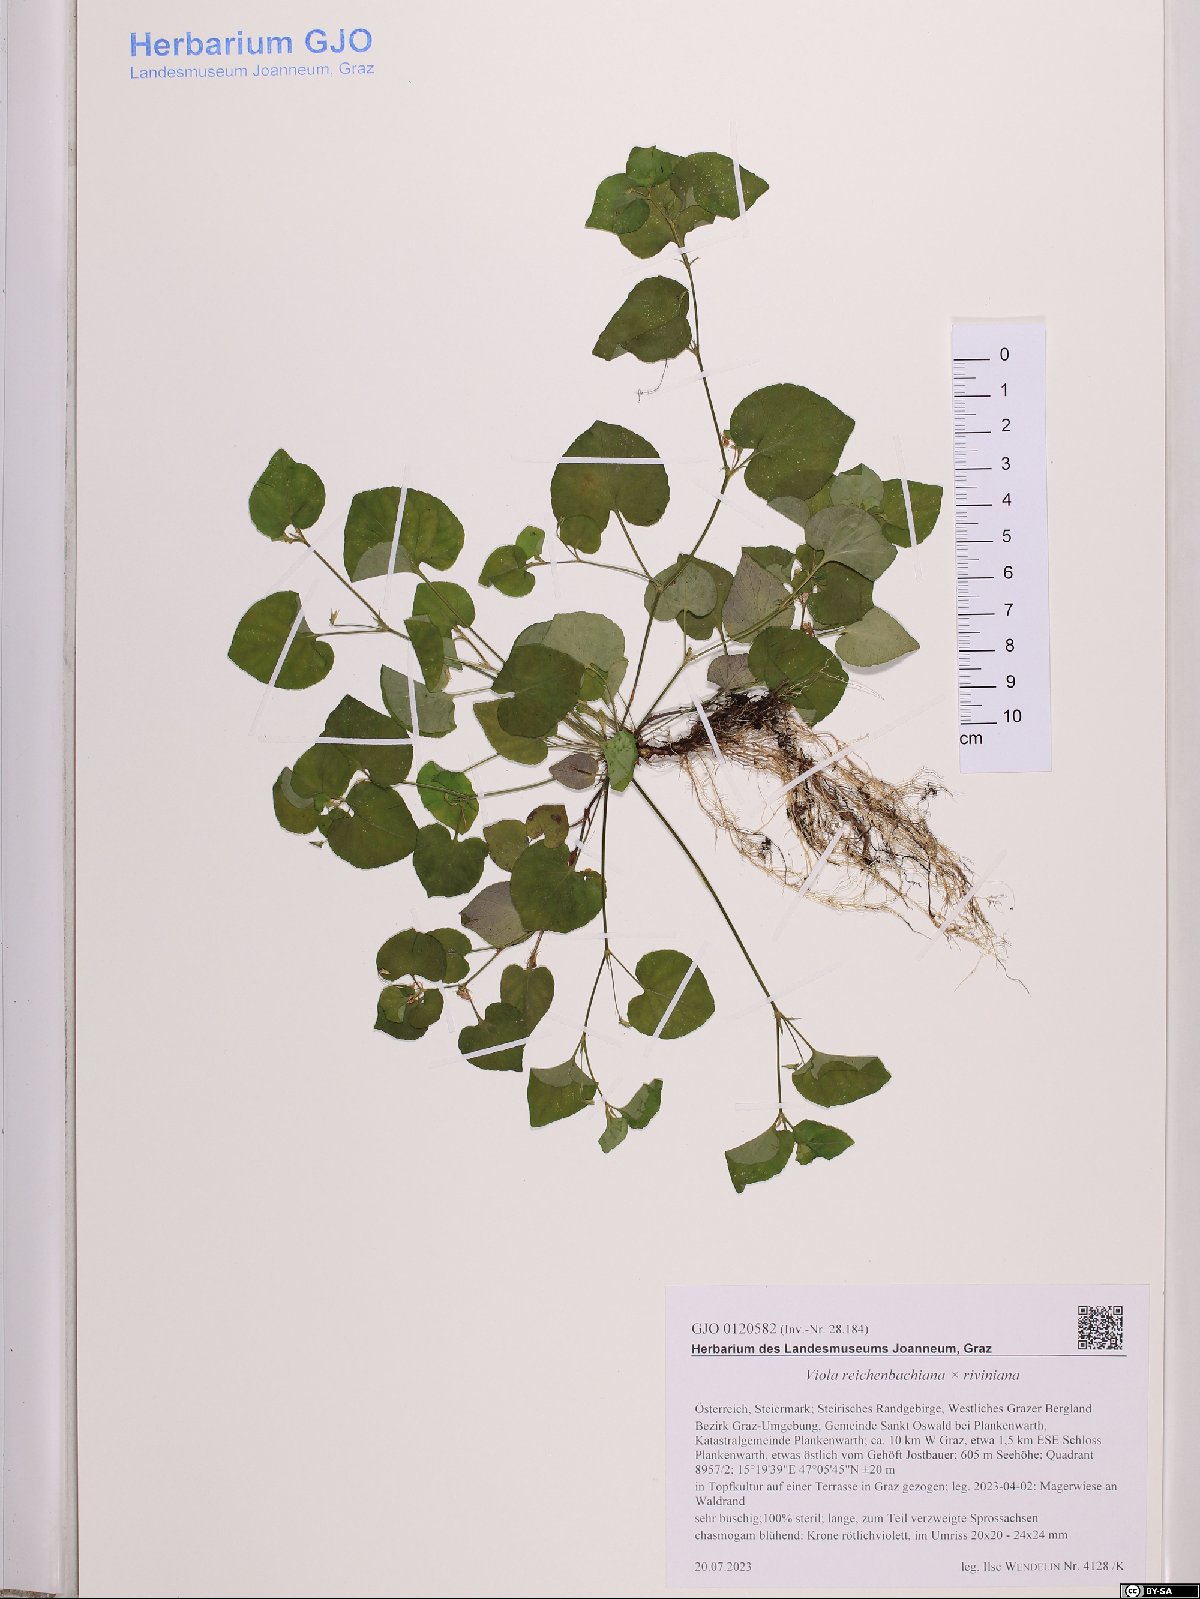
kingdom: Plantae
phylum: Tracheophyta
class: Magnoliopsida
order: Malpighiales
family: Violaceae
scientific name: Violaceae
